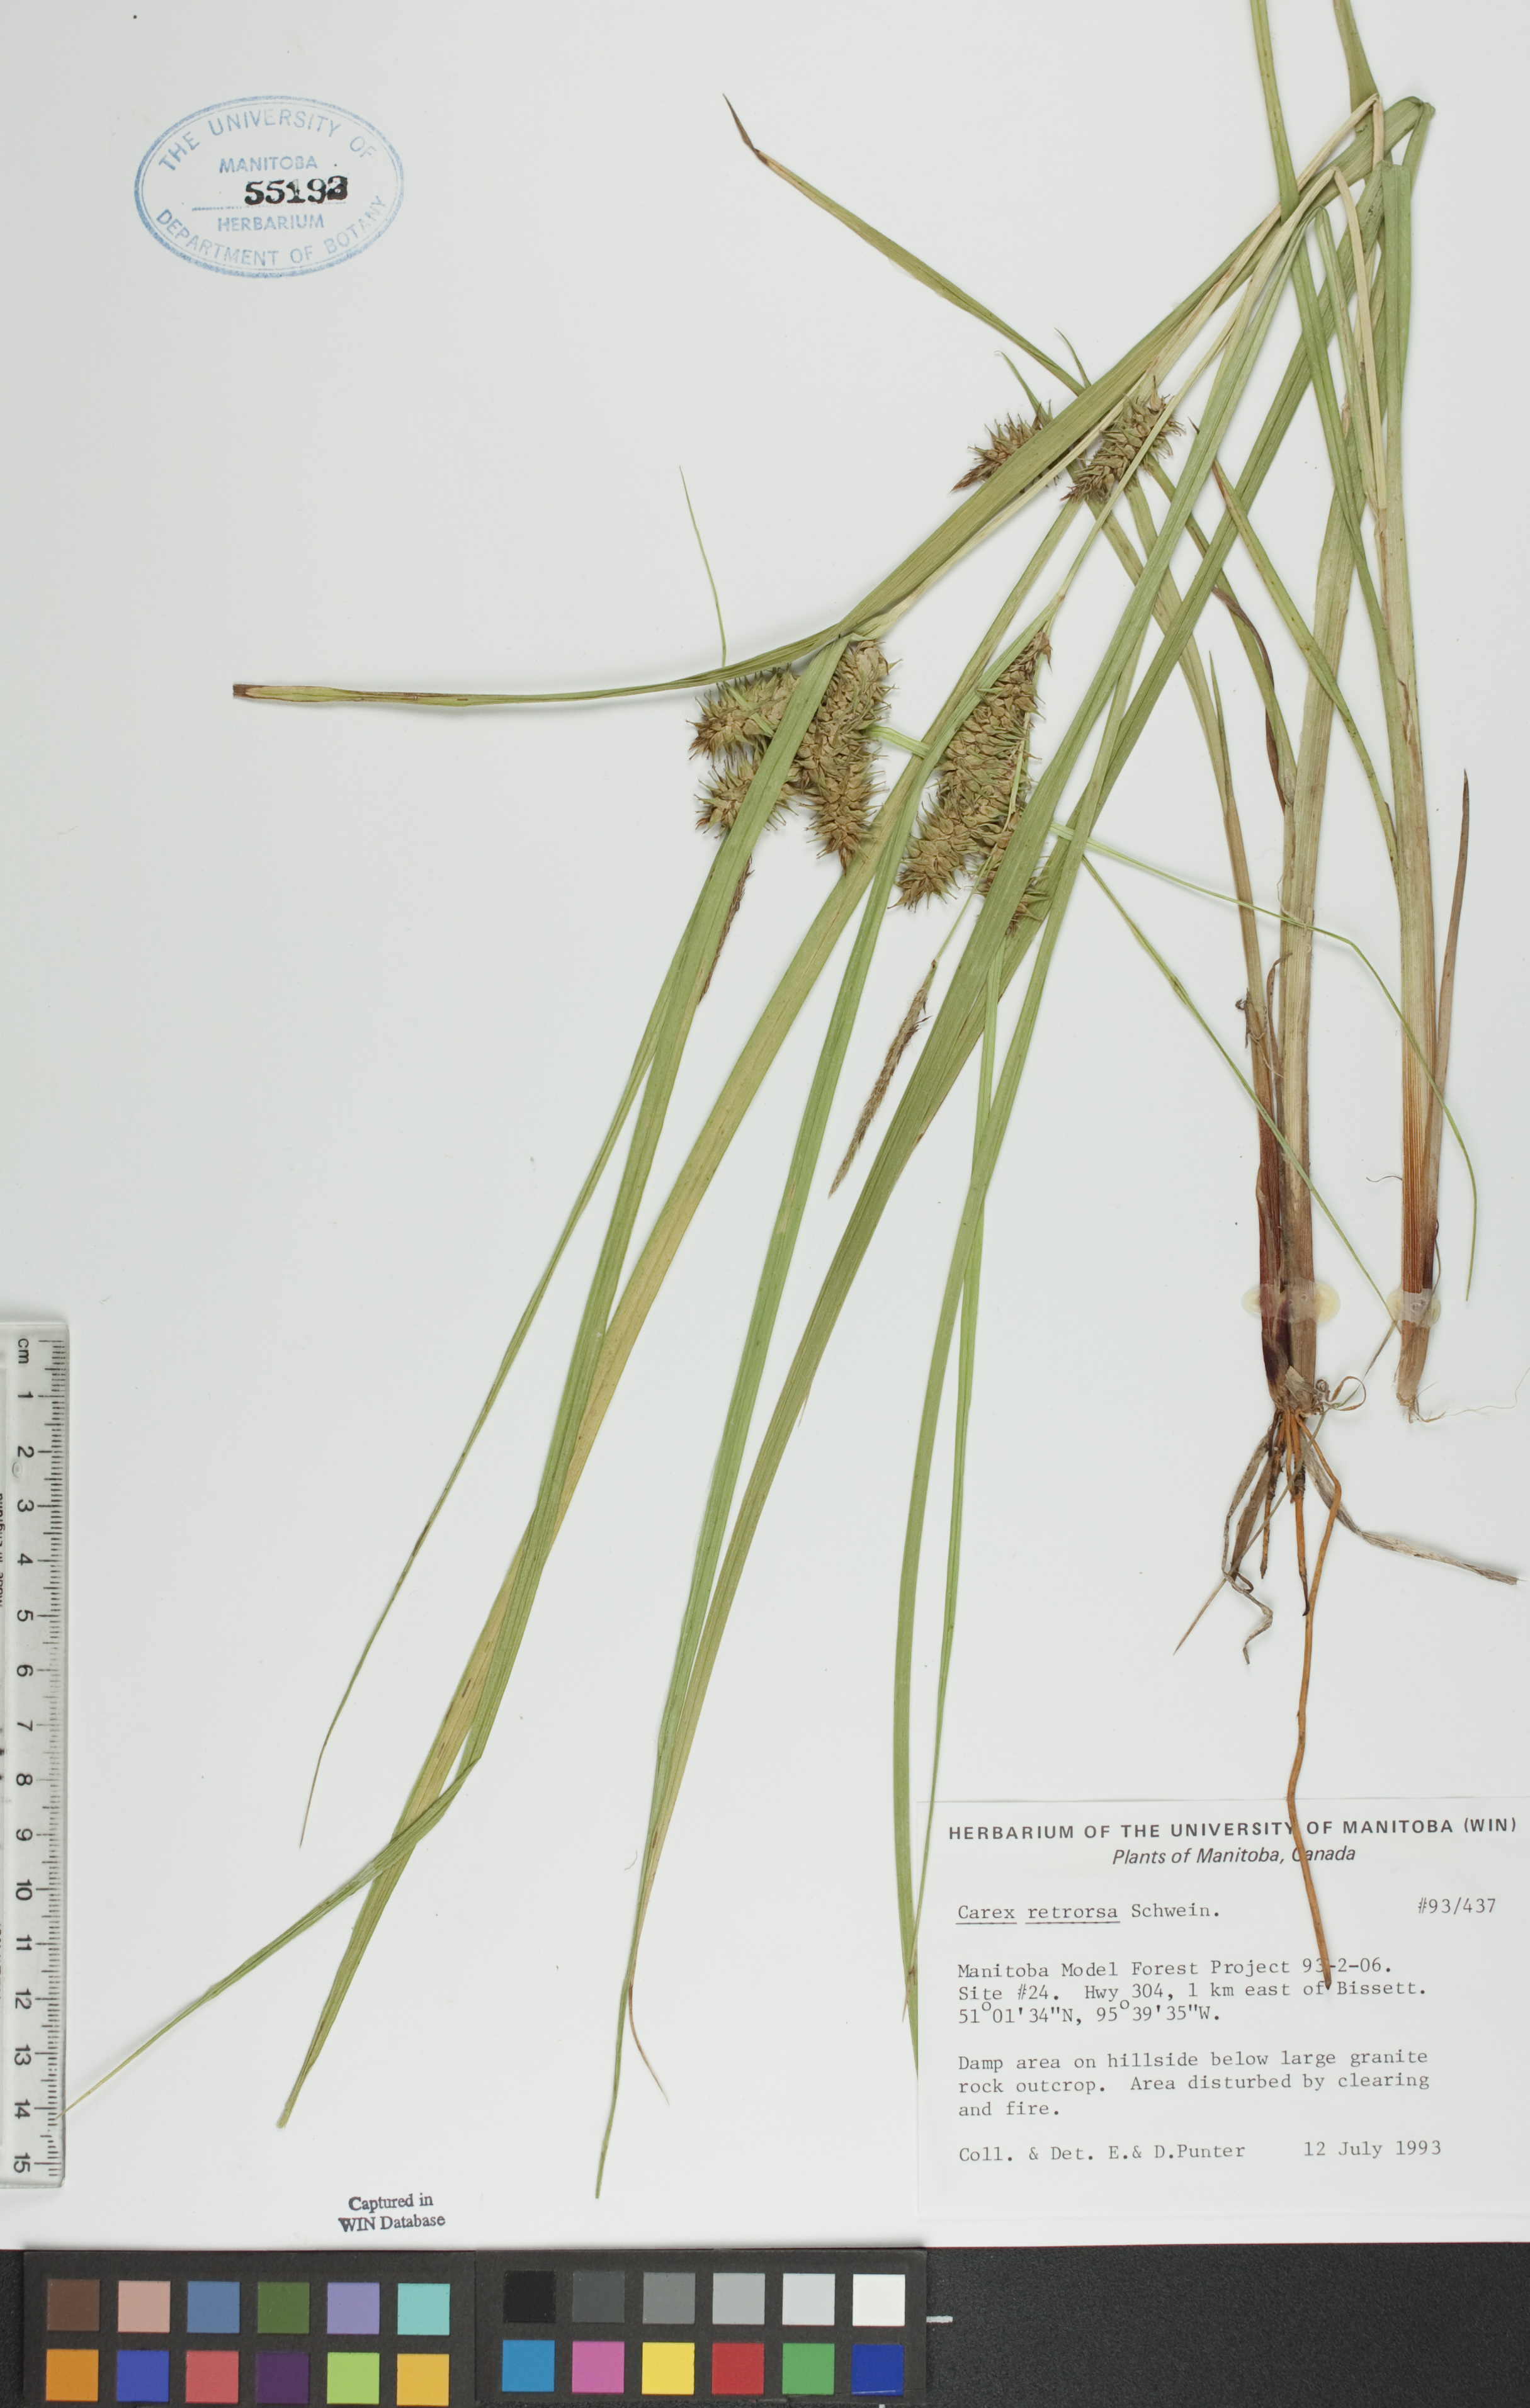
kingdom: Plantae
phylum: Tracheophyta
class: Liliopsida
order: Poales
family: Cyperaceae
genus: Carex
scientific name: Carex retrorsa
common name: Knot-sheath sedge
